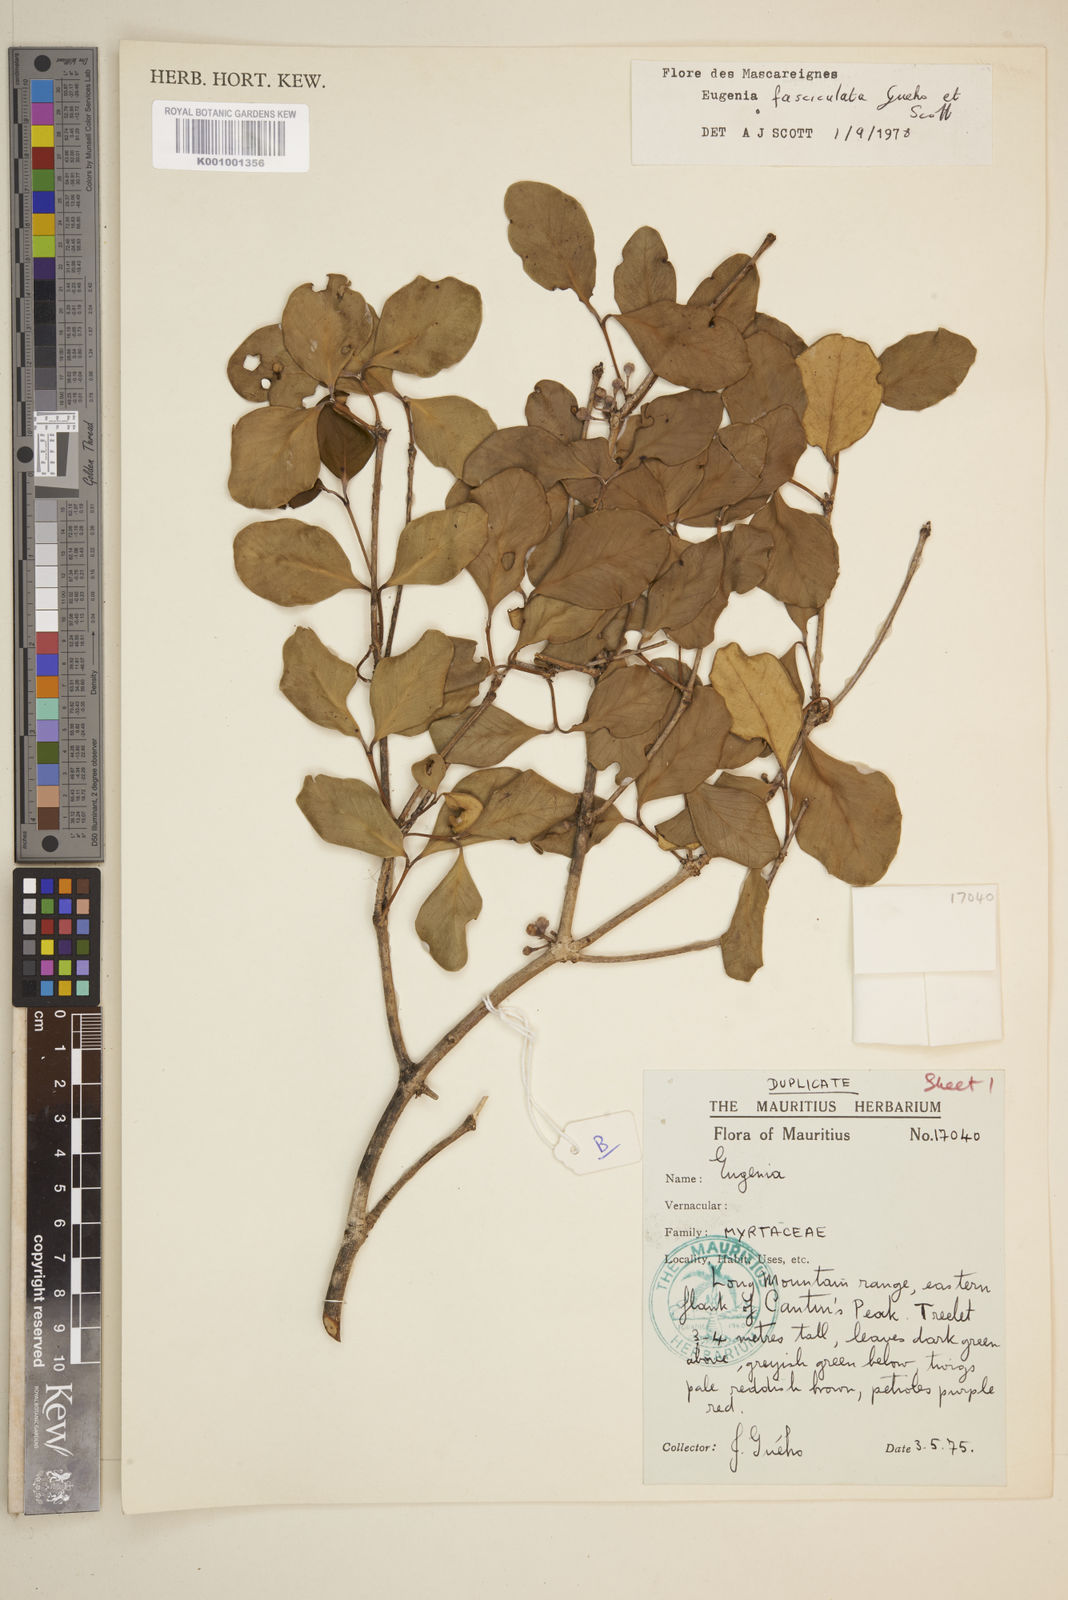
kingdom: Plantae
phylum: Tracheophyta
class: Magnoliopsida
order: Myrtales
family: Myrtaceae
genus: Eugenia
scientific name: Eugenia roxburghii
